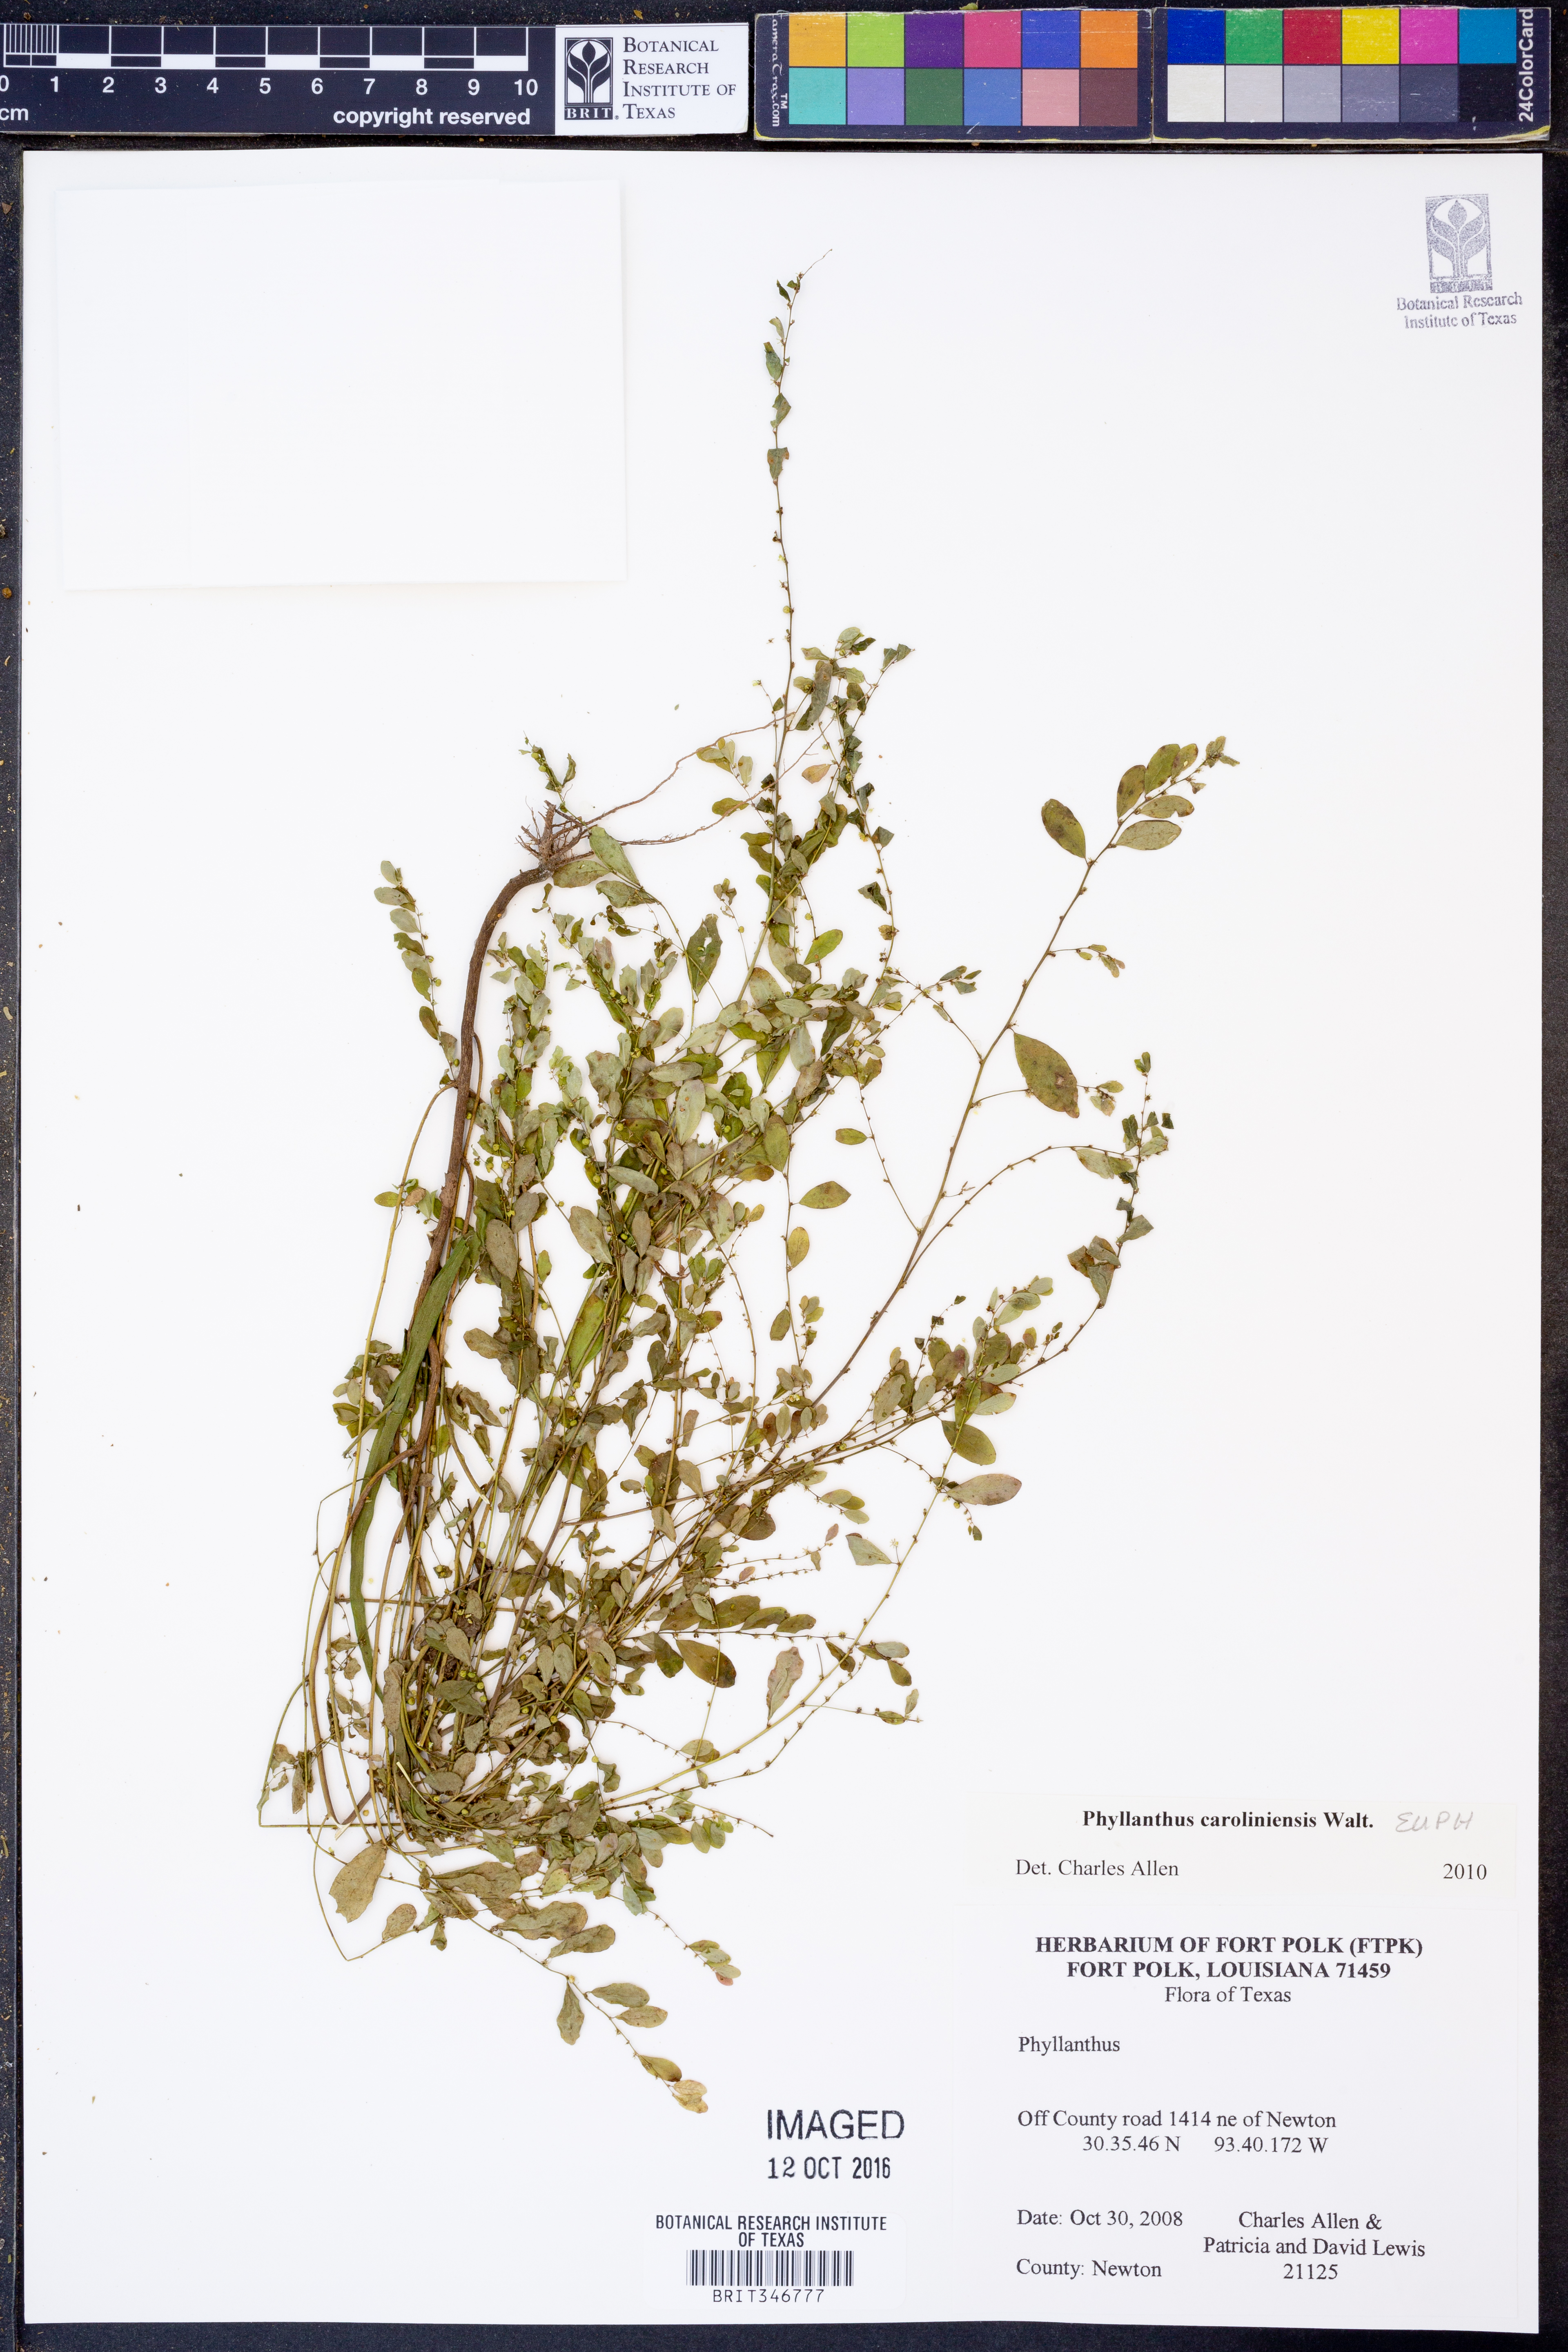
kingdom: Plantae
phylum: Tracheophyta
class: Magnoliopsida
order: Malpighiales
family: Phyllanthaceae
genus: Phyllanthus
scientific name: Phyllanthus caroliniensis
